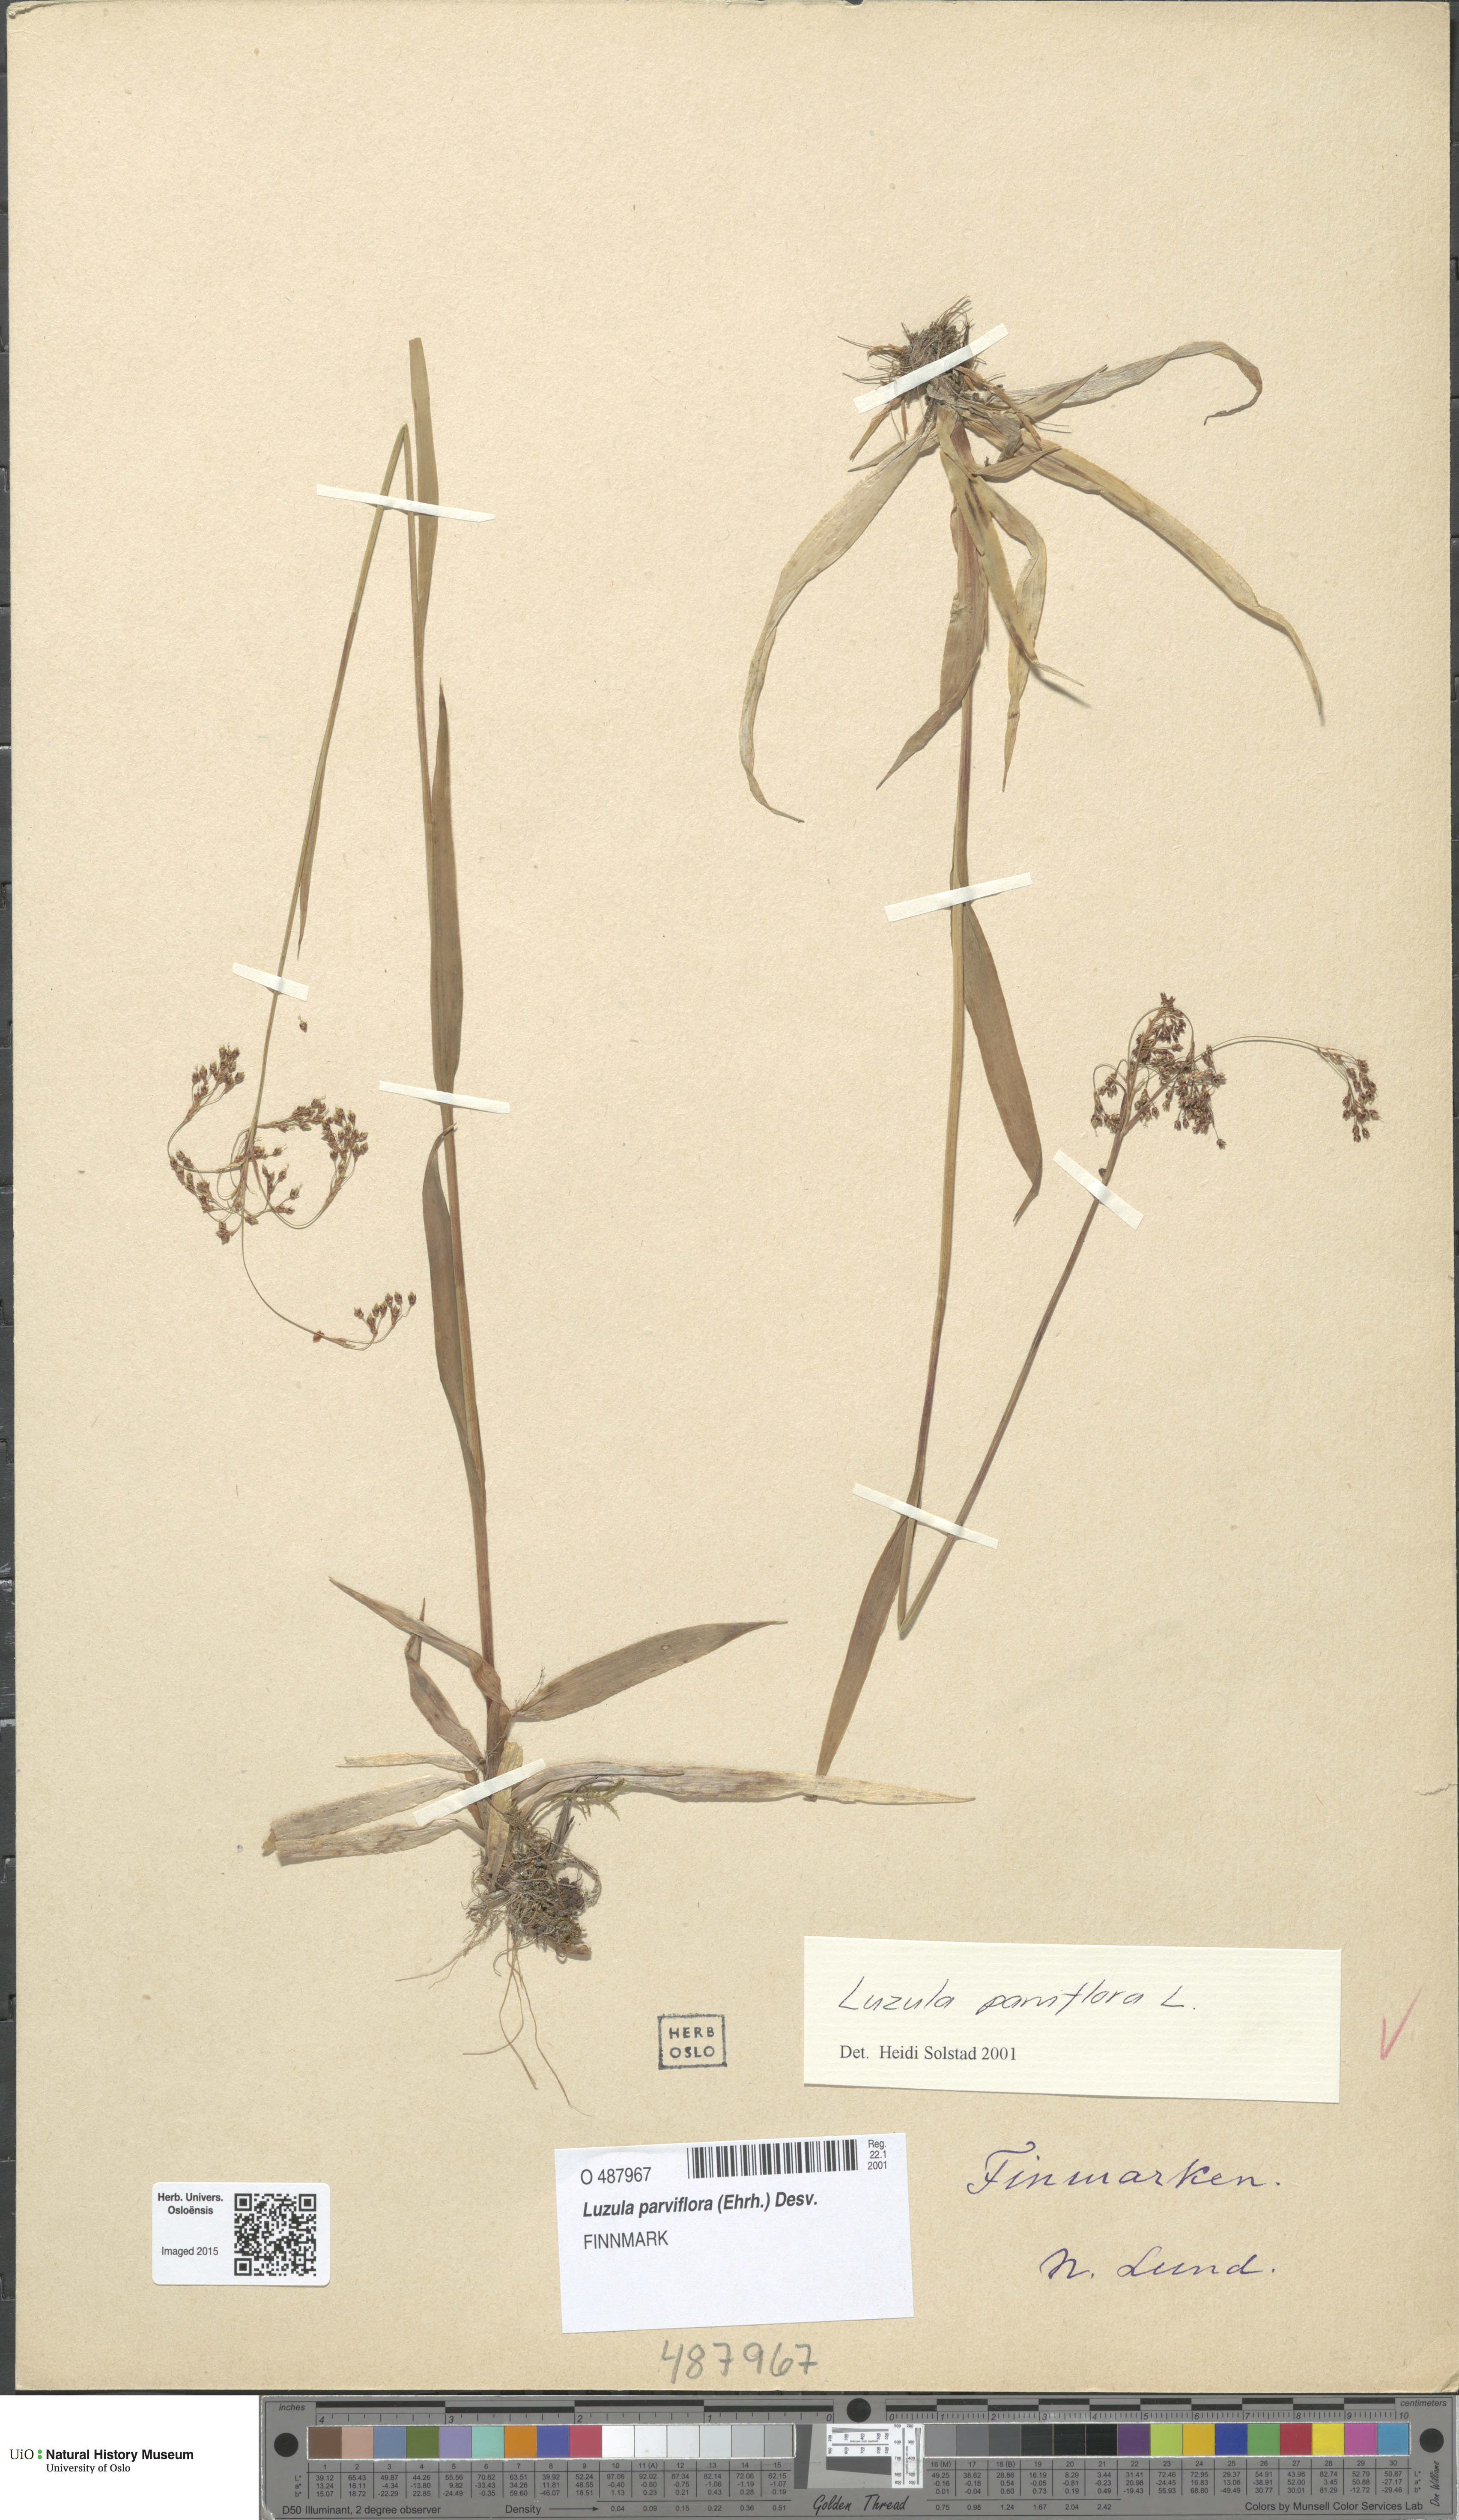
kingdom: Plantae
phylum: Tracheophyta
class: Liliopsida
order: Poales
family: Juncaceae
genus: Luzula
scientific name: Luzula parviflora
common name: Millet woodrush
